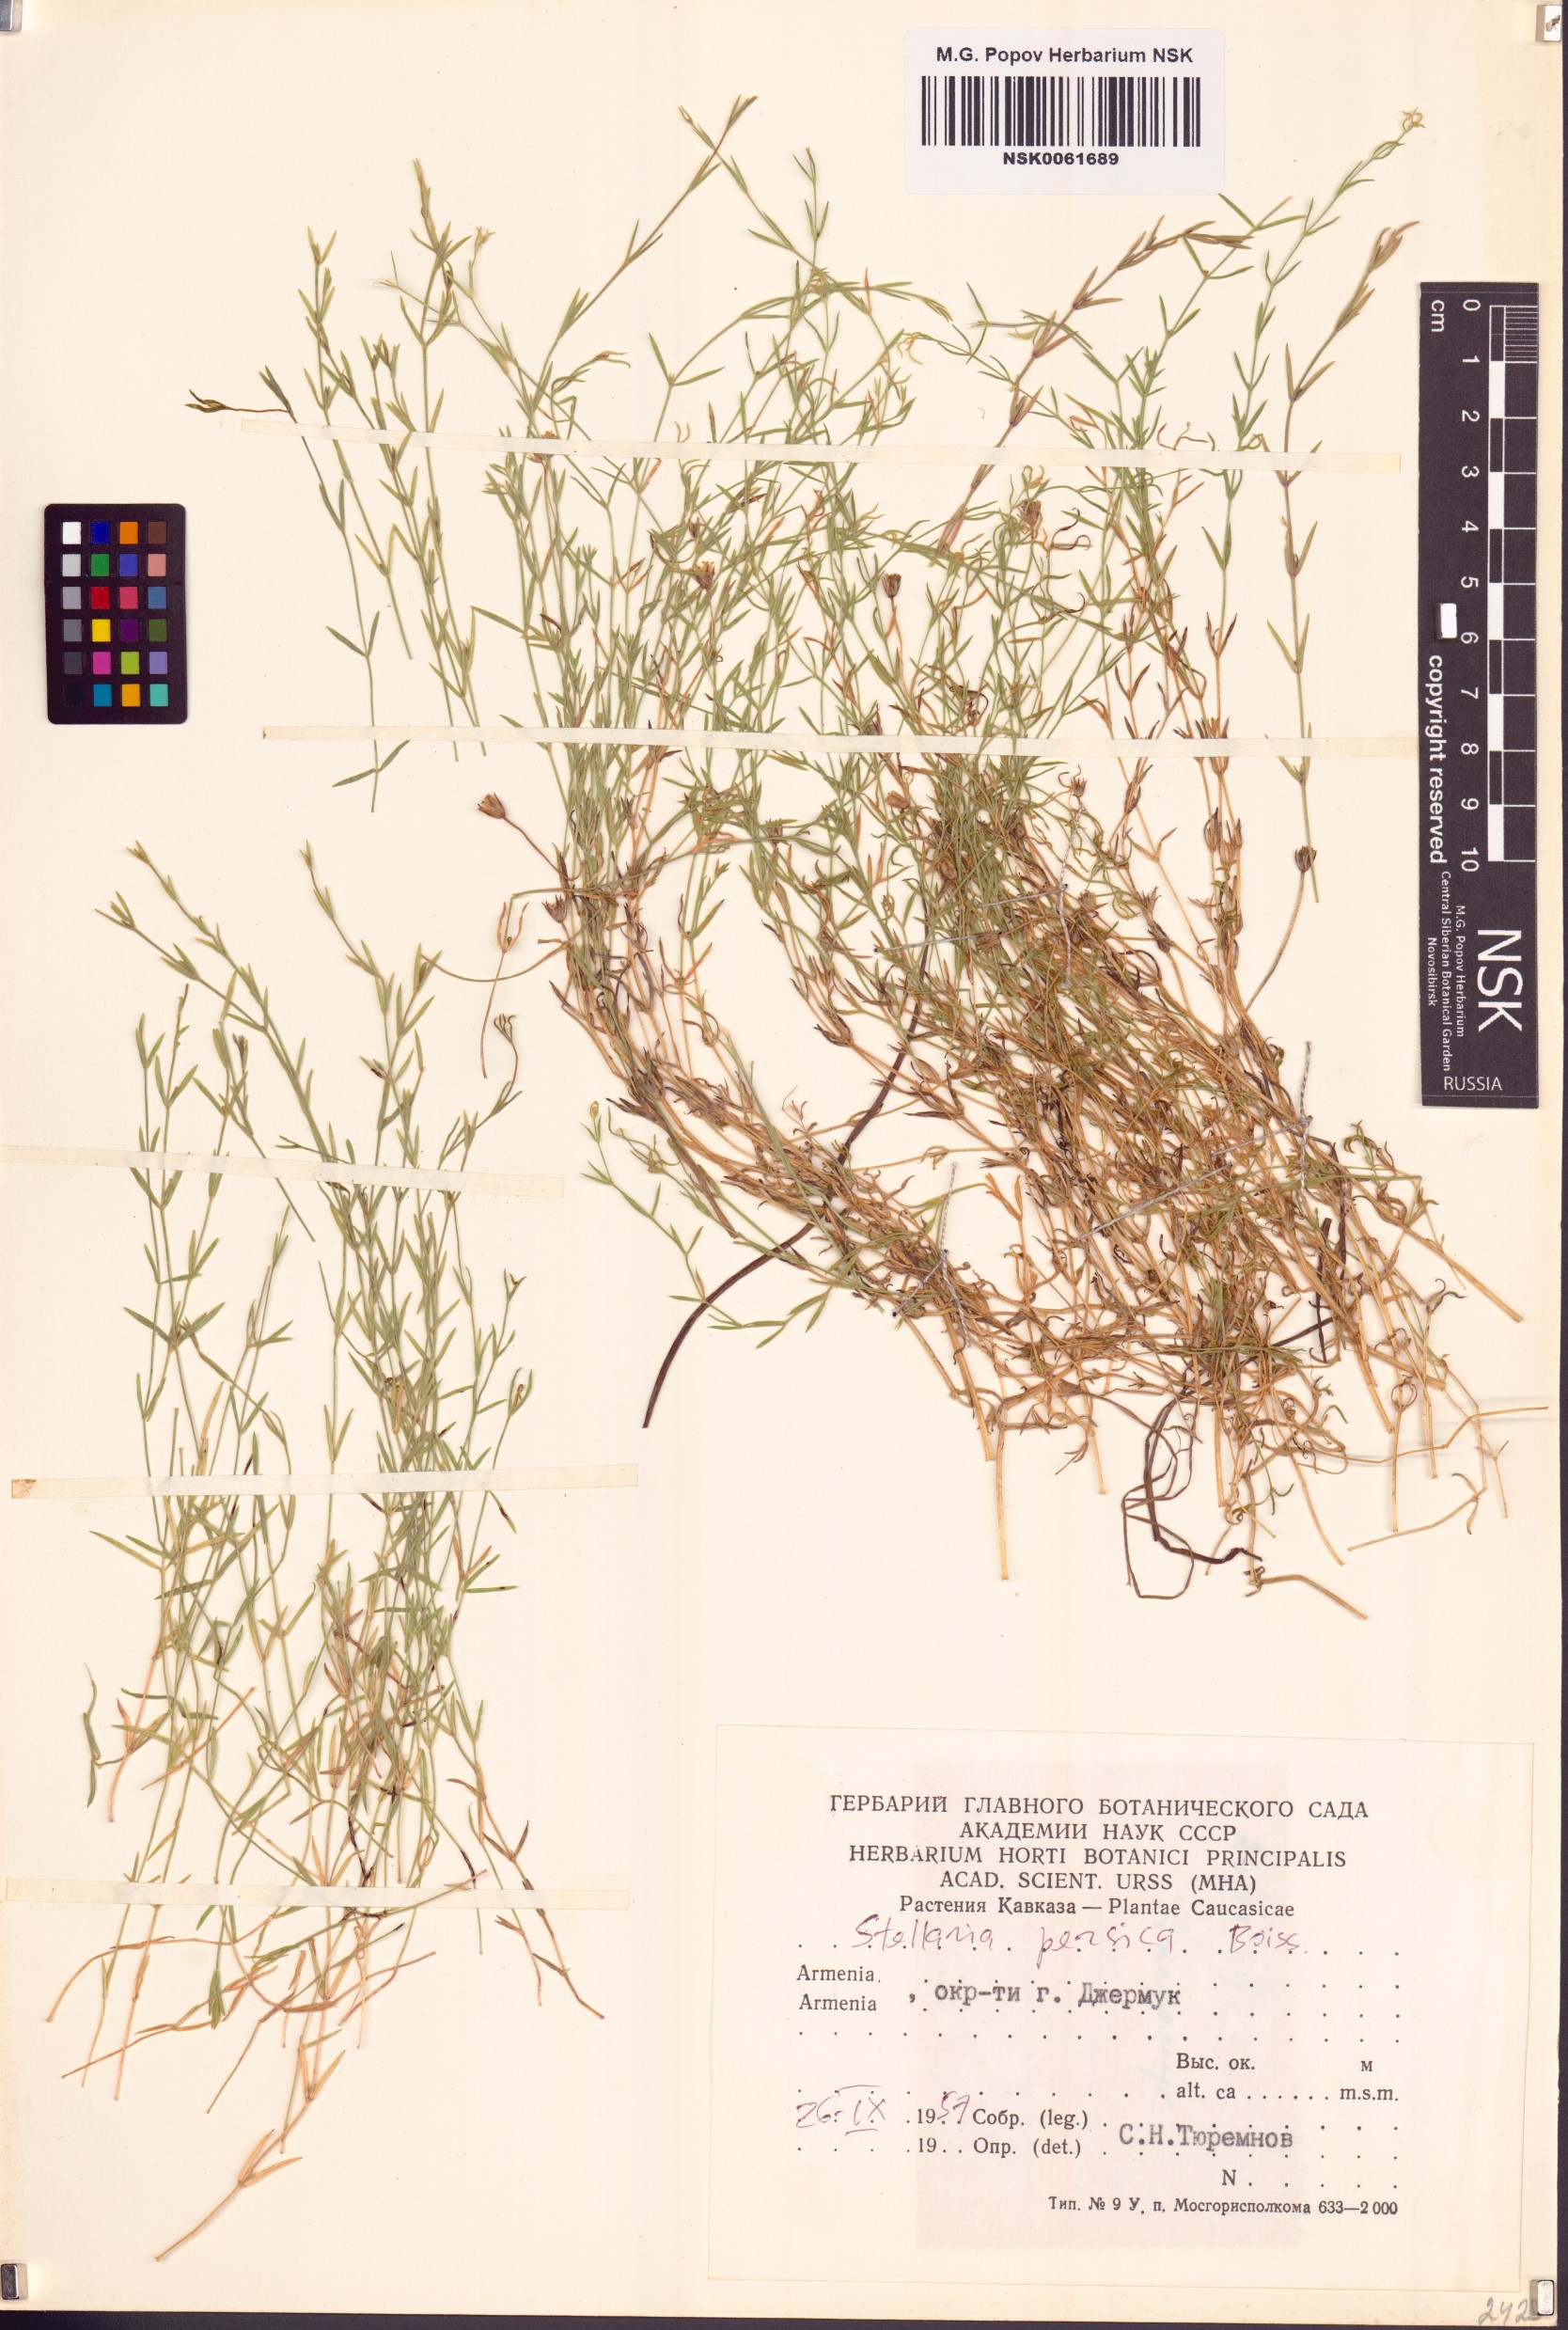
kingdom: Plantae
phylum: Tracheophyta
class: Magnoliopsida
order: Caryophyllales
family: Caryophyllaceae
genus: Stellaria
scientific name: Stellaria persica
